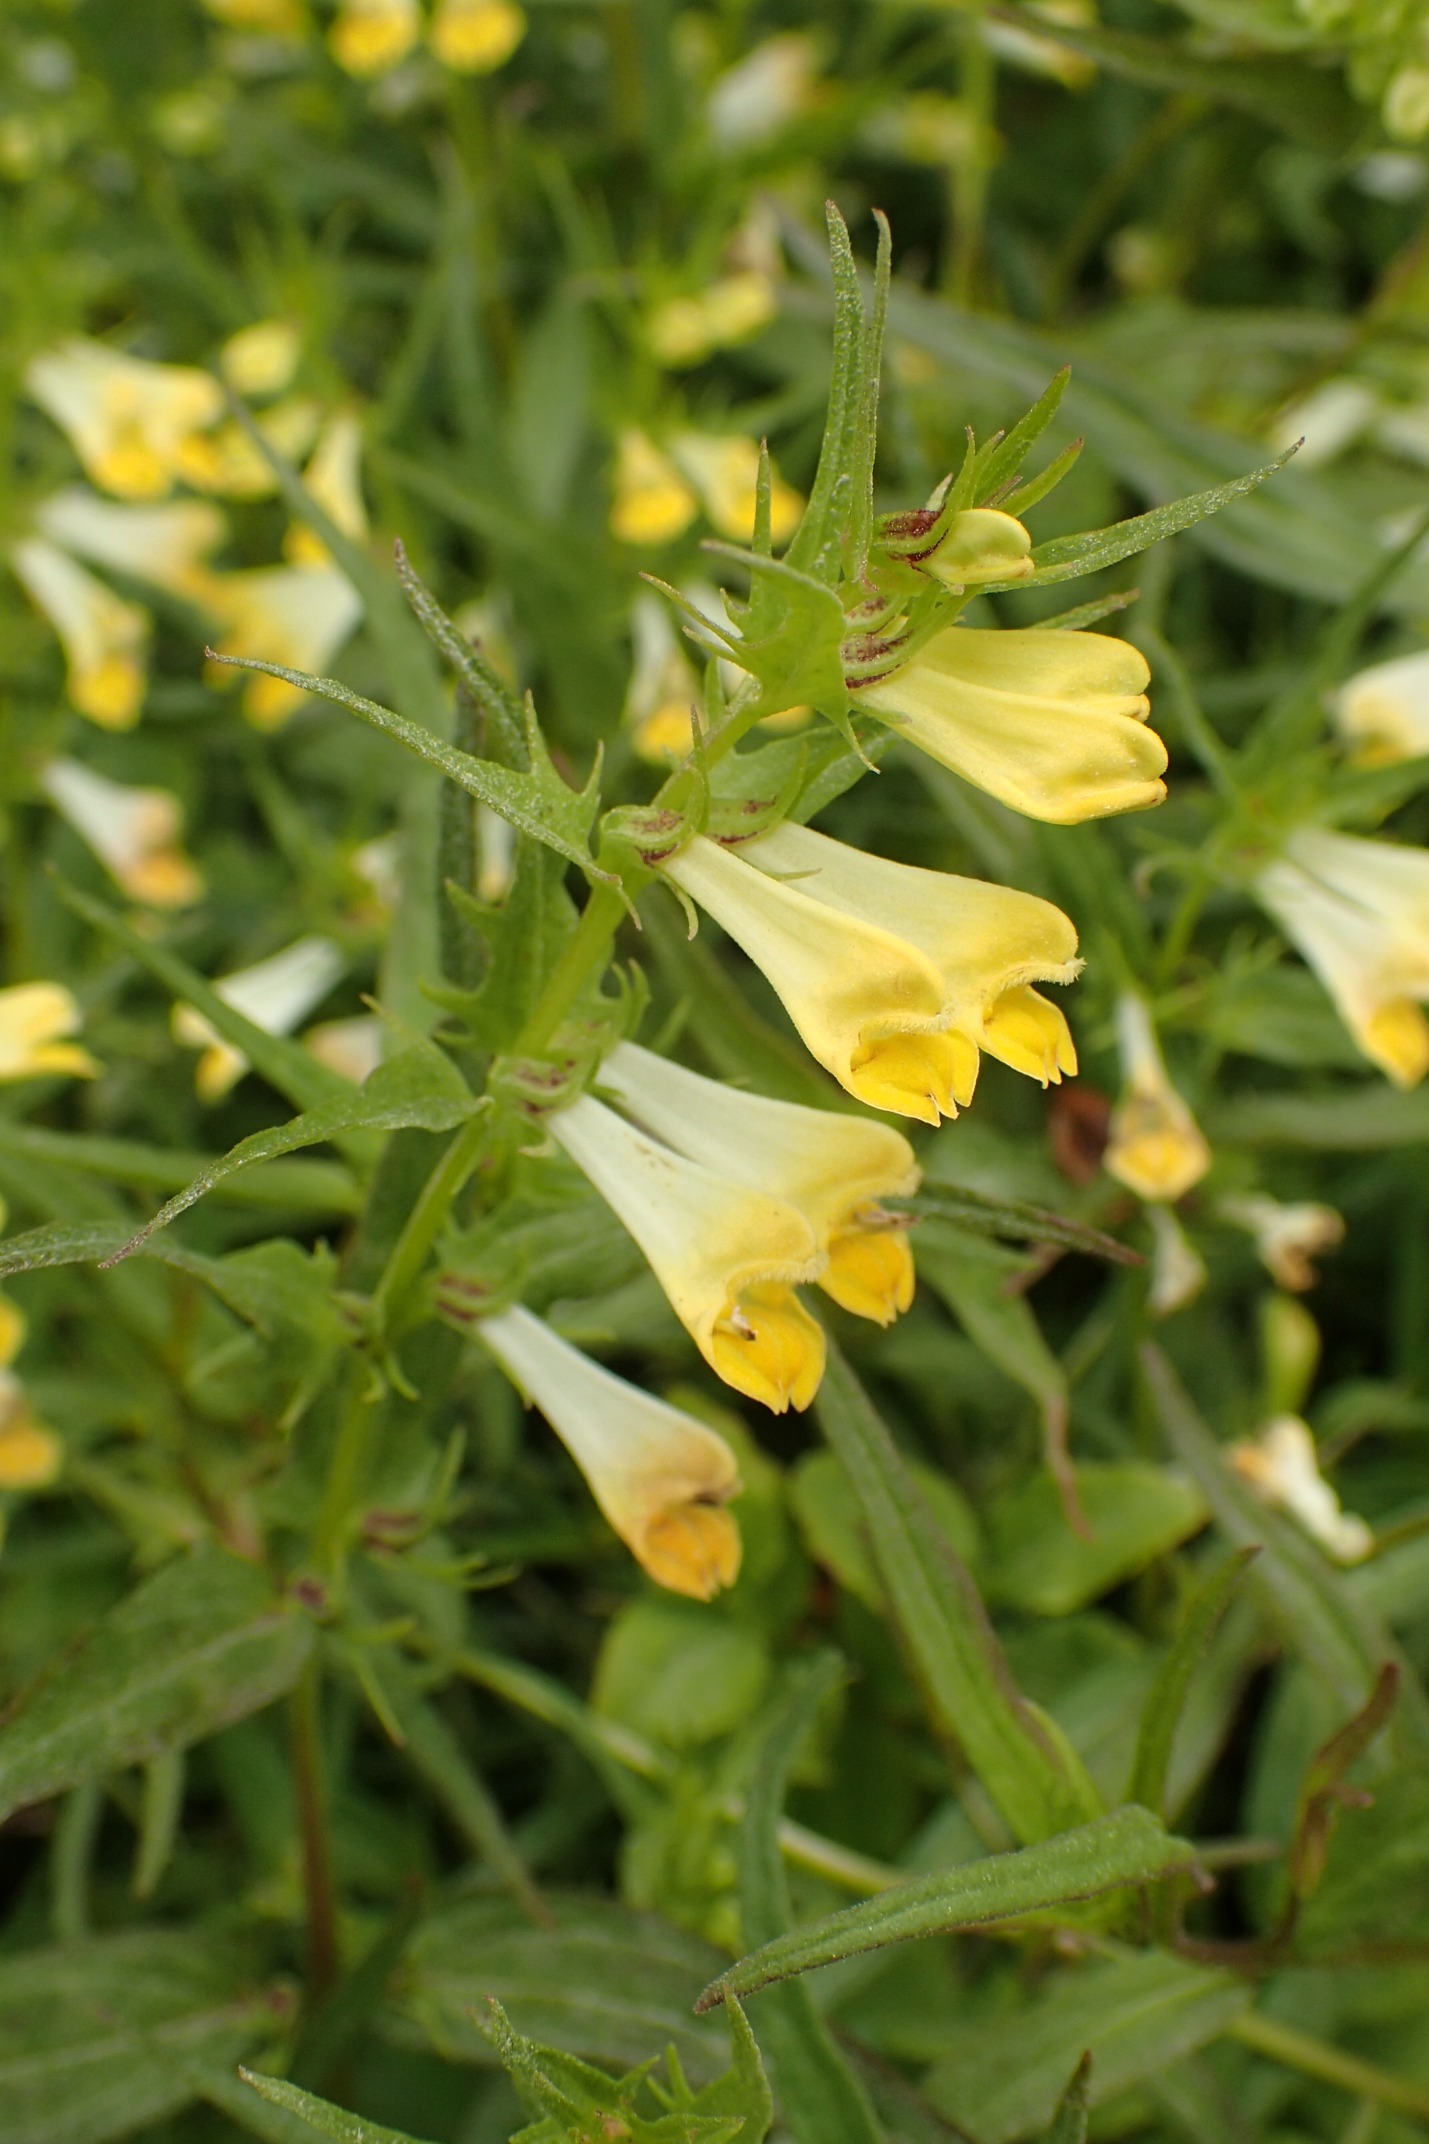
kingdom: Plantae
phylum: Tracheophyta
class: Magnoliopsida
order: Lamiales
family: Orobanchaceae
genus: Melampyrum
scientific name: Melampyrum pratense
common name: Almindelig kohvede
